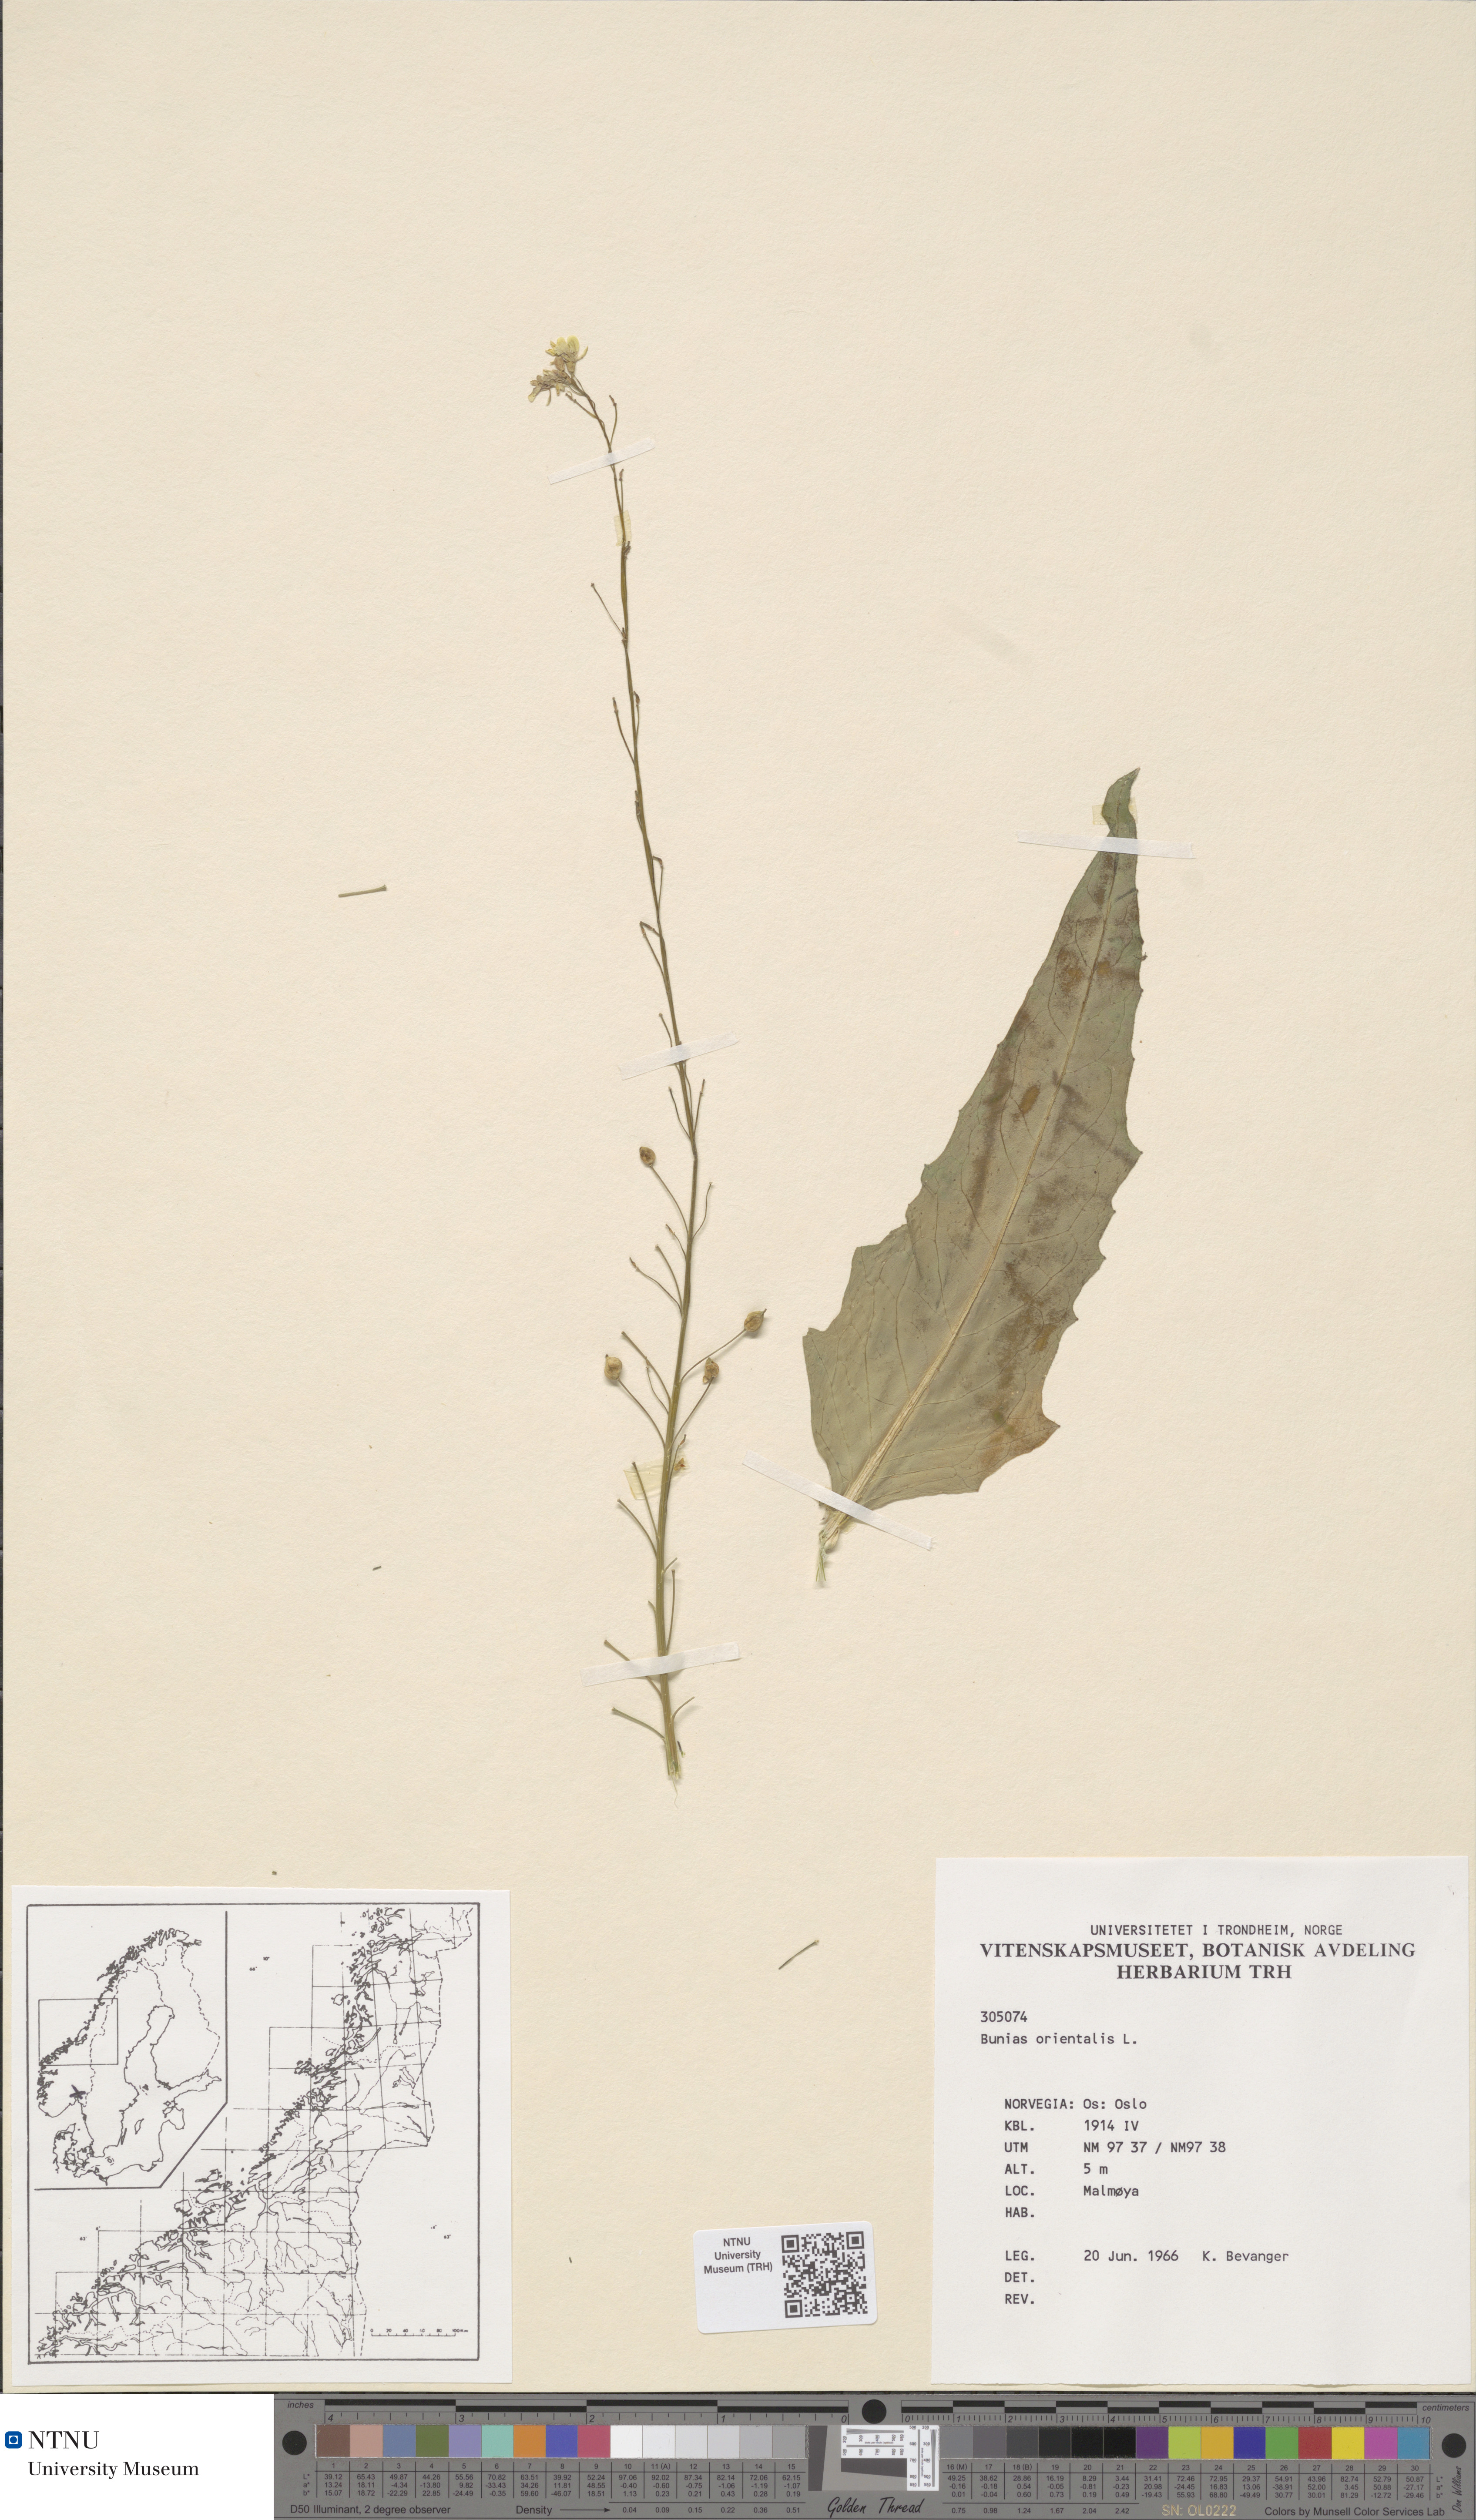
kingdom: Plantae
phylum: Tracheophyta
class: Magnoliopsida
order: Brassicales
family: Brassicaceae
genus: Bunias
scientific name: Bunias orientalis
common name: Warty-cabbage
